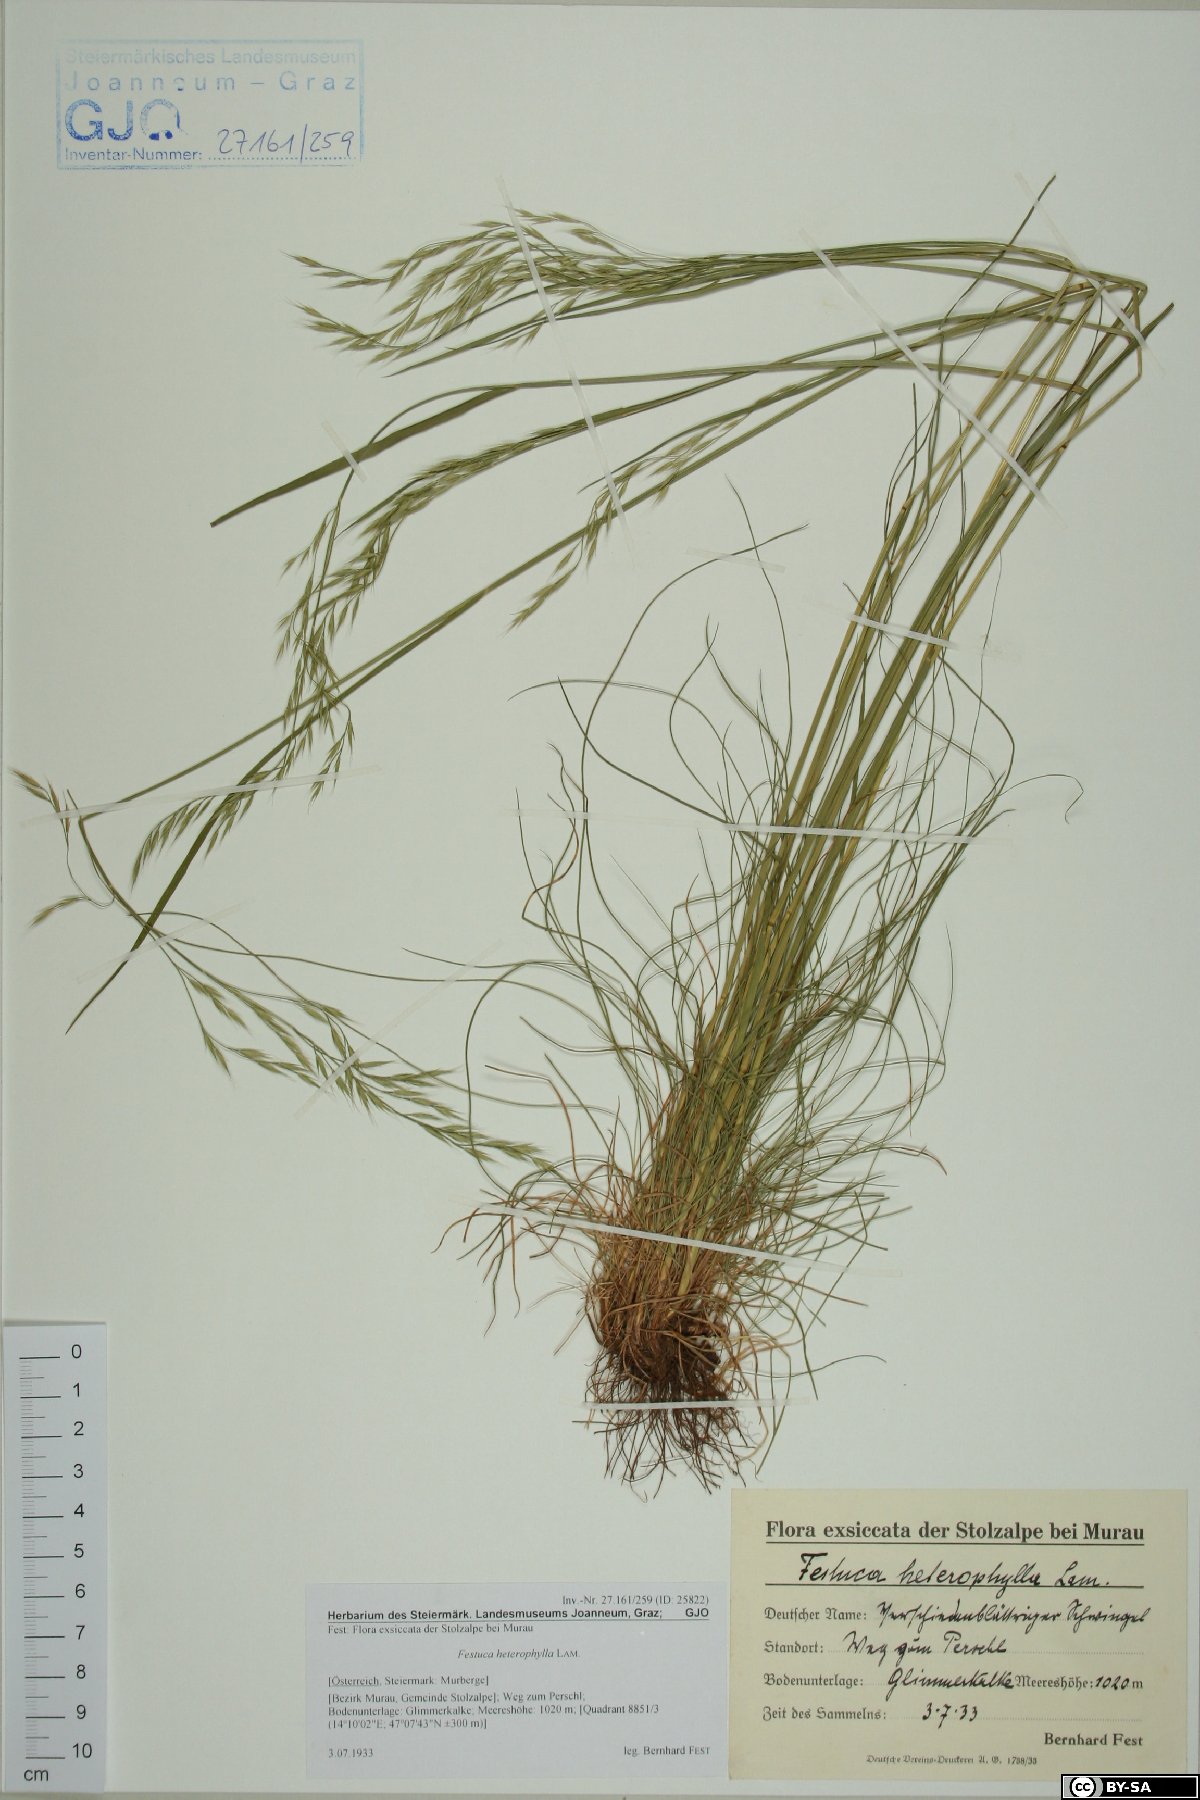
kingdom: Plantae
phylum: Tracheophyta
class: Liliopsida
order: Poales
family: Poaceae
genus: Festuca
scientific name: Festuca heterophylla
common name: Various-leaved fescue
